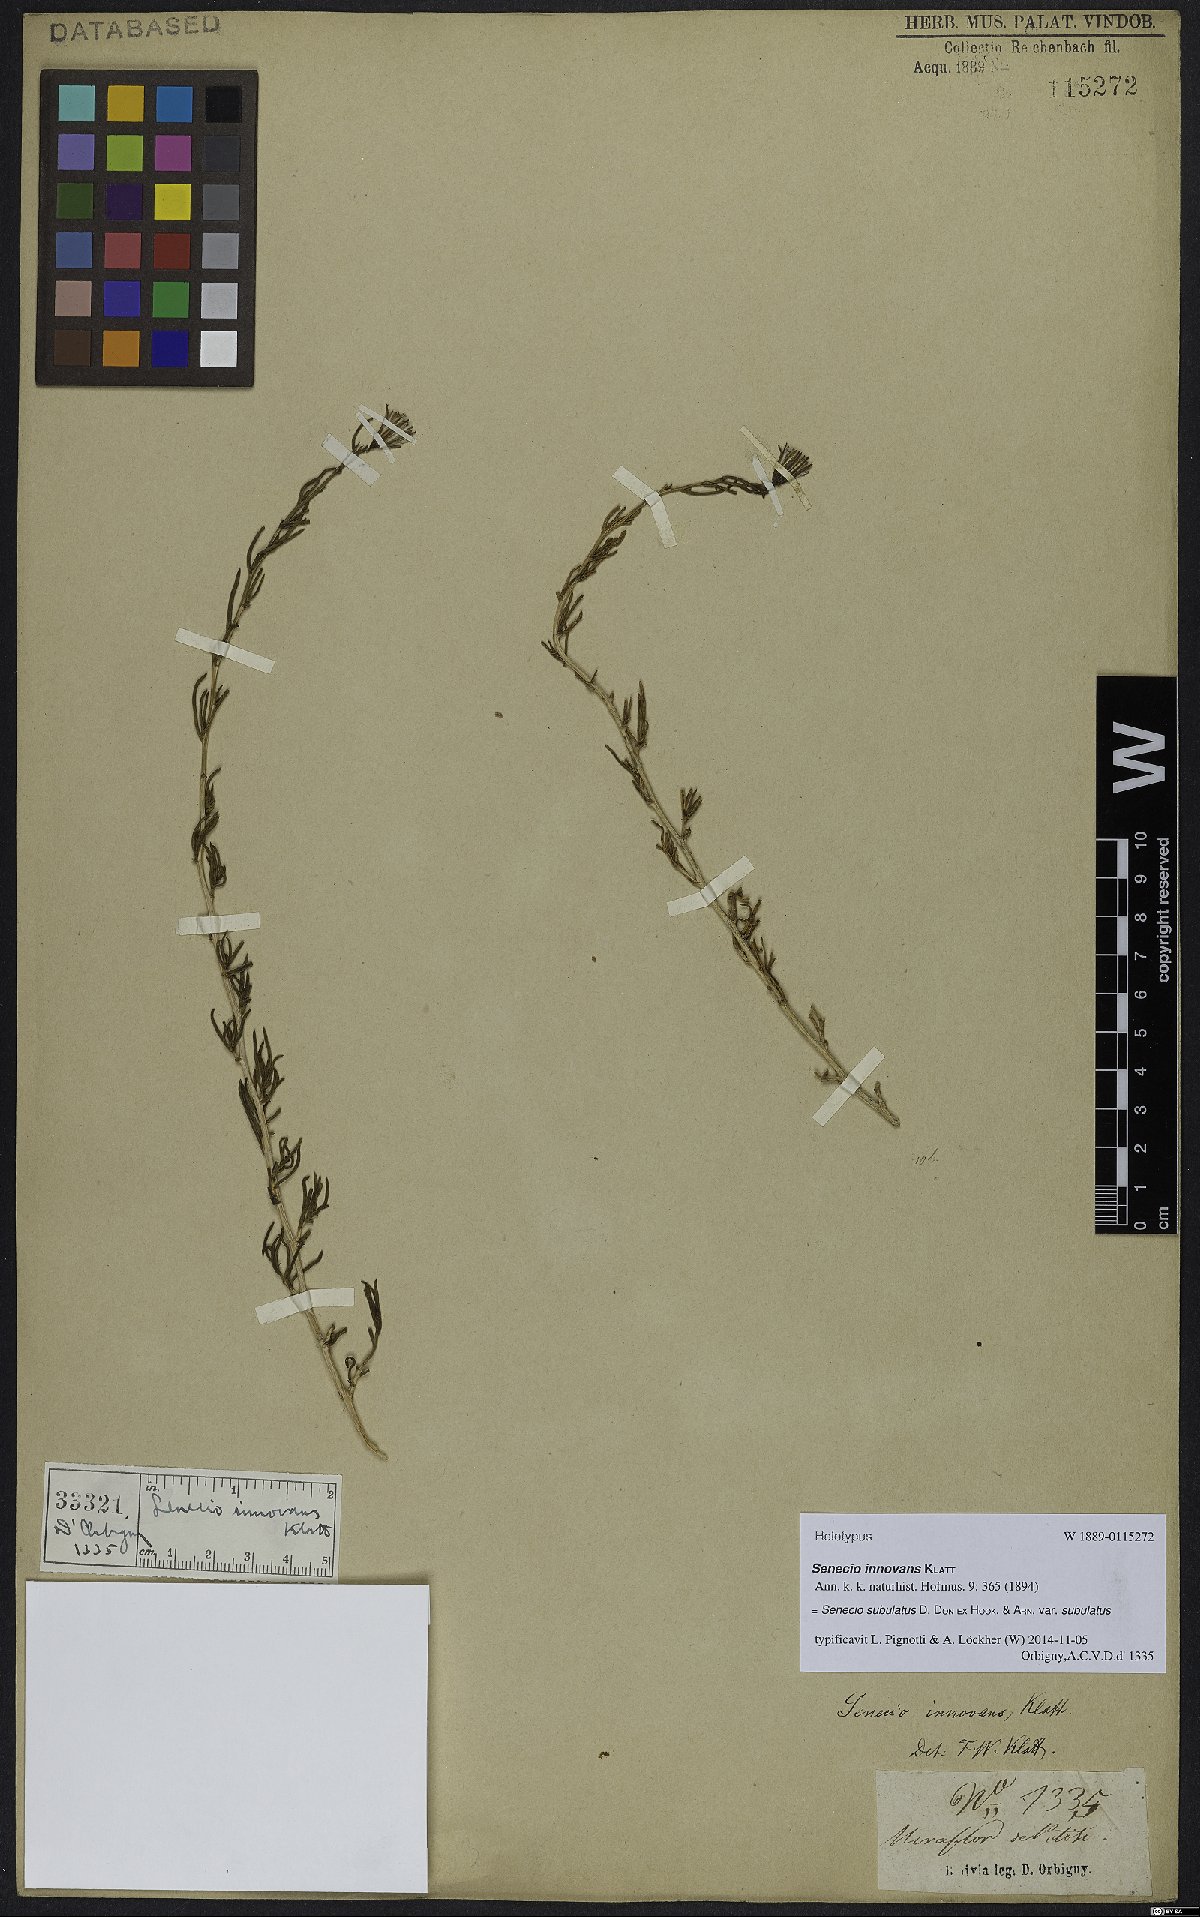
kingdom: Plantae
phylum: Tracheophyta
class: Magnoliopsida
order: Asterales
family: Asteraceae
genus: Senecio
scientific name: Senecio subulatus
